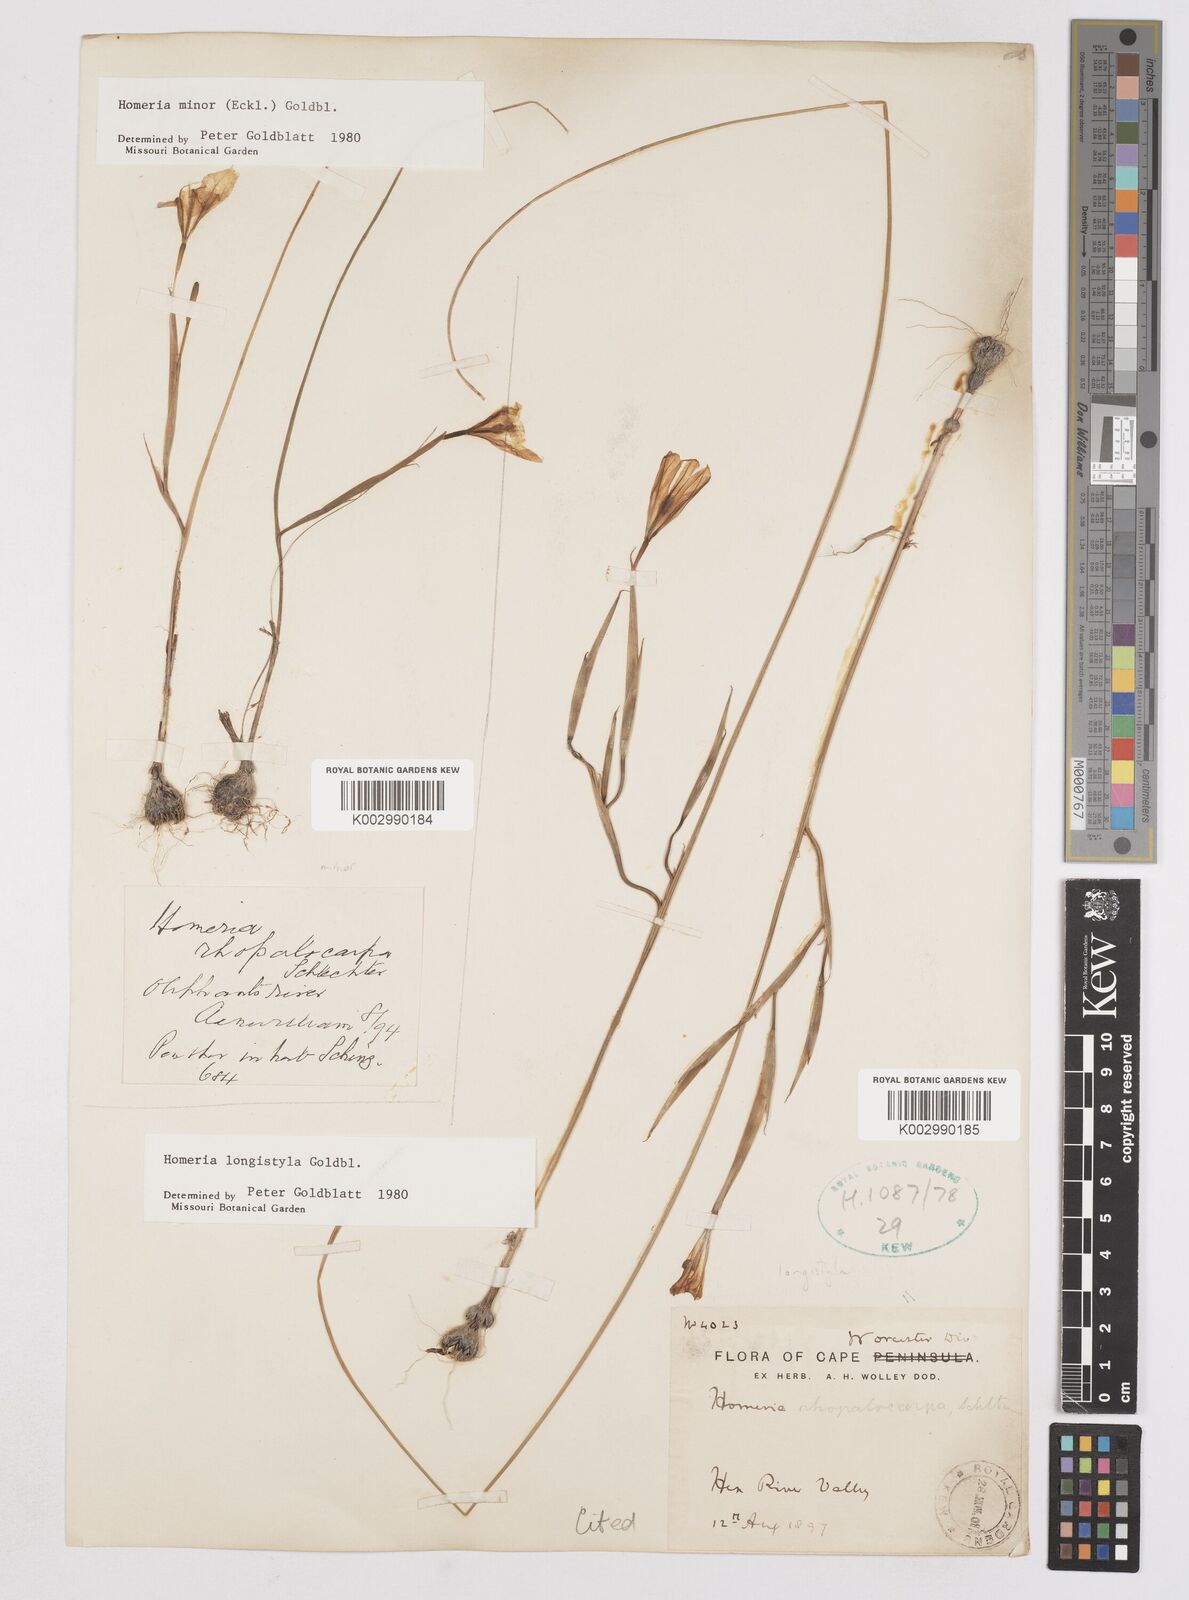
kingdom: Plantae
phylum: Tracheophyta
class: Liliopsida
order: Asparagales
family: Iridaceae
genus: Moraea
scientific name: Moraea longistyla
